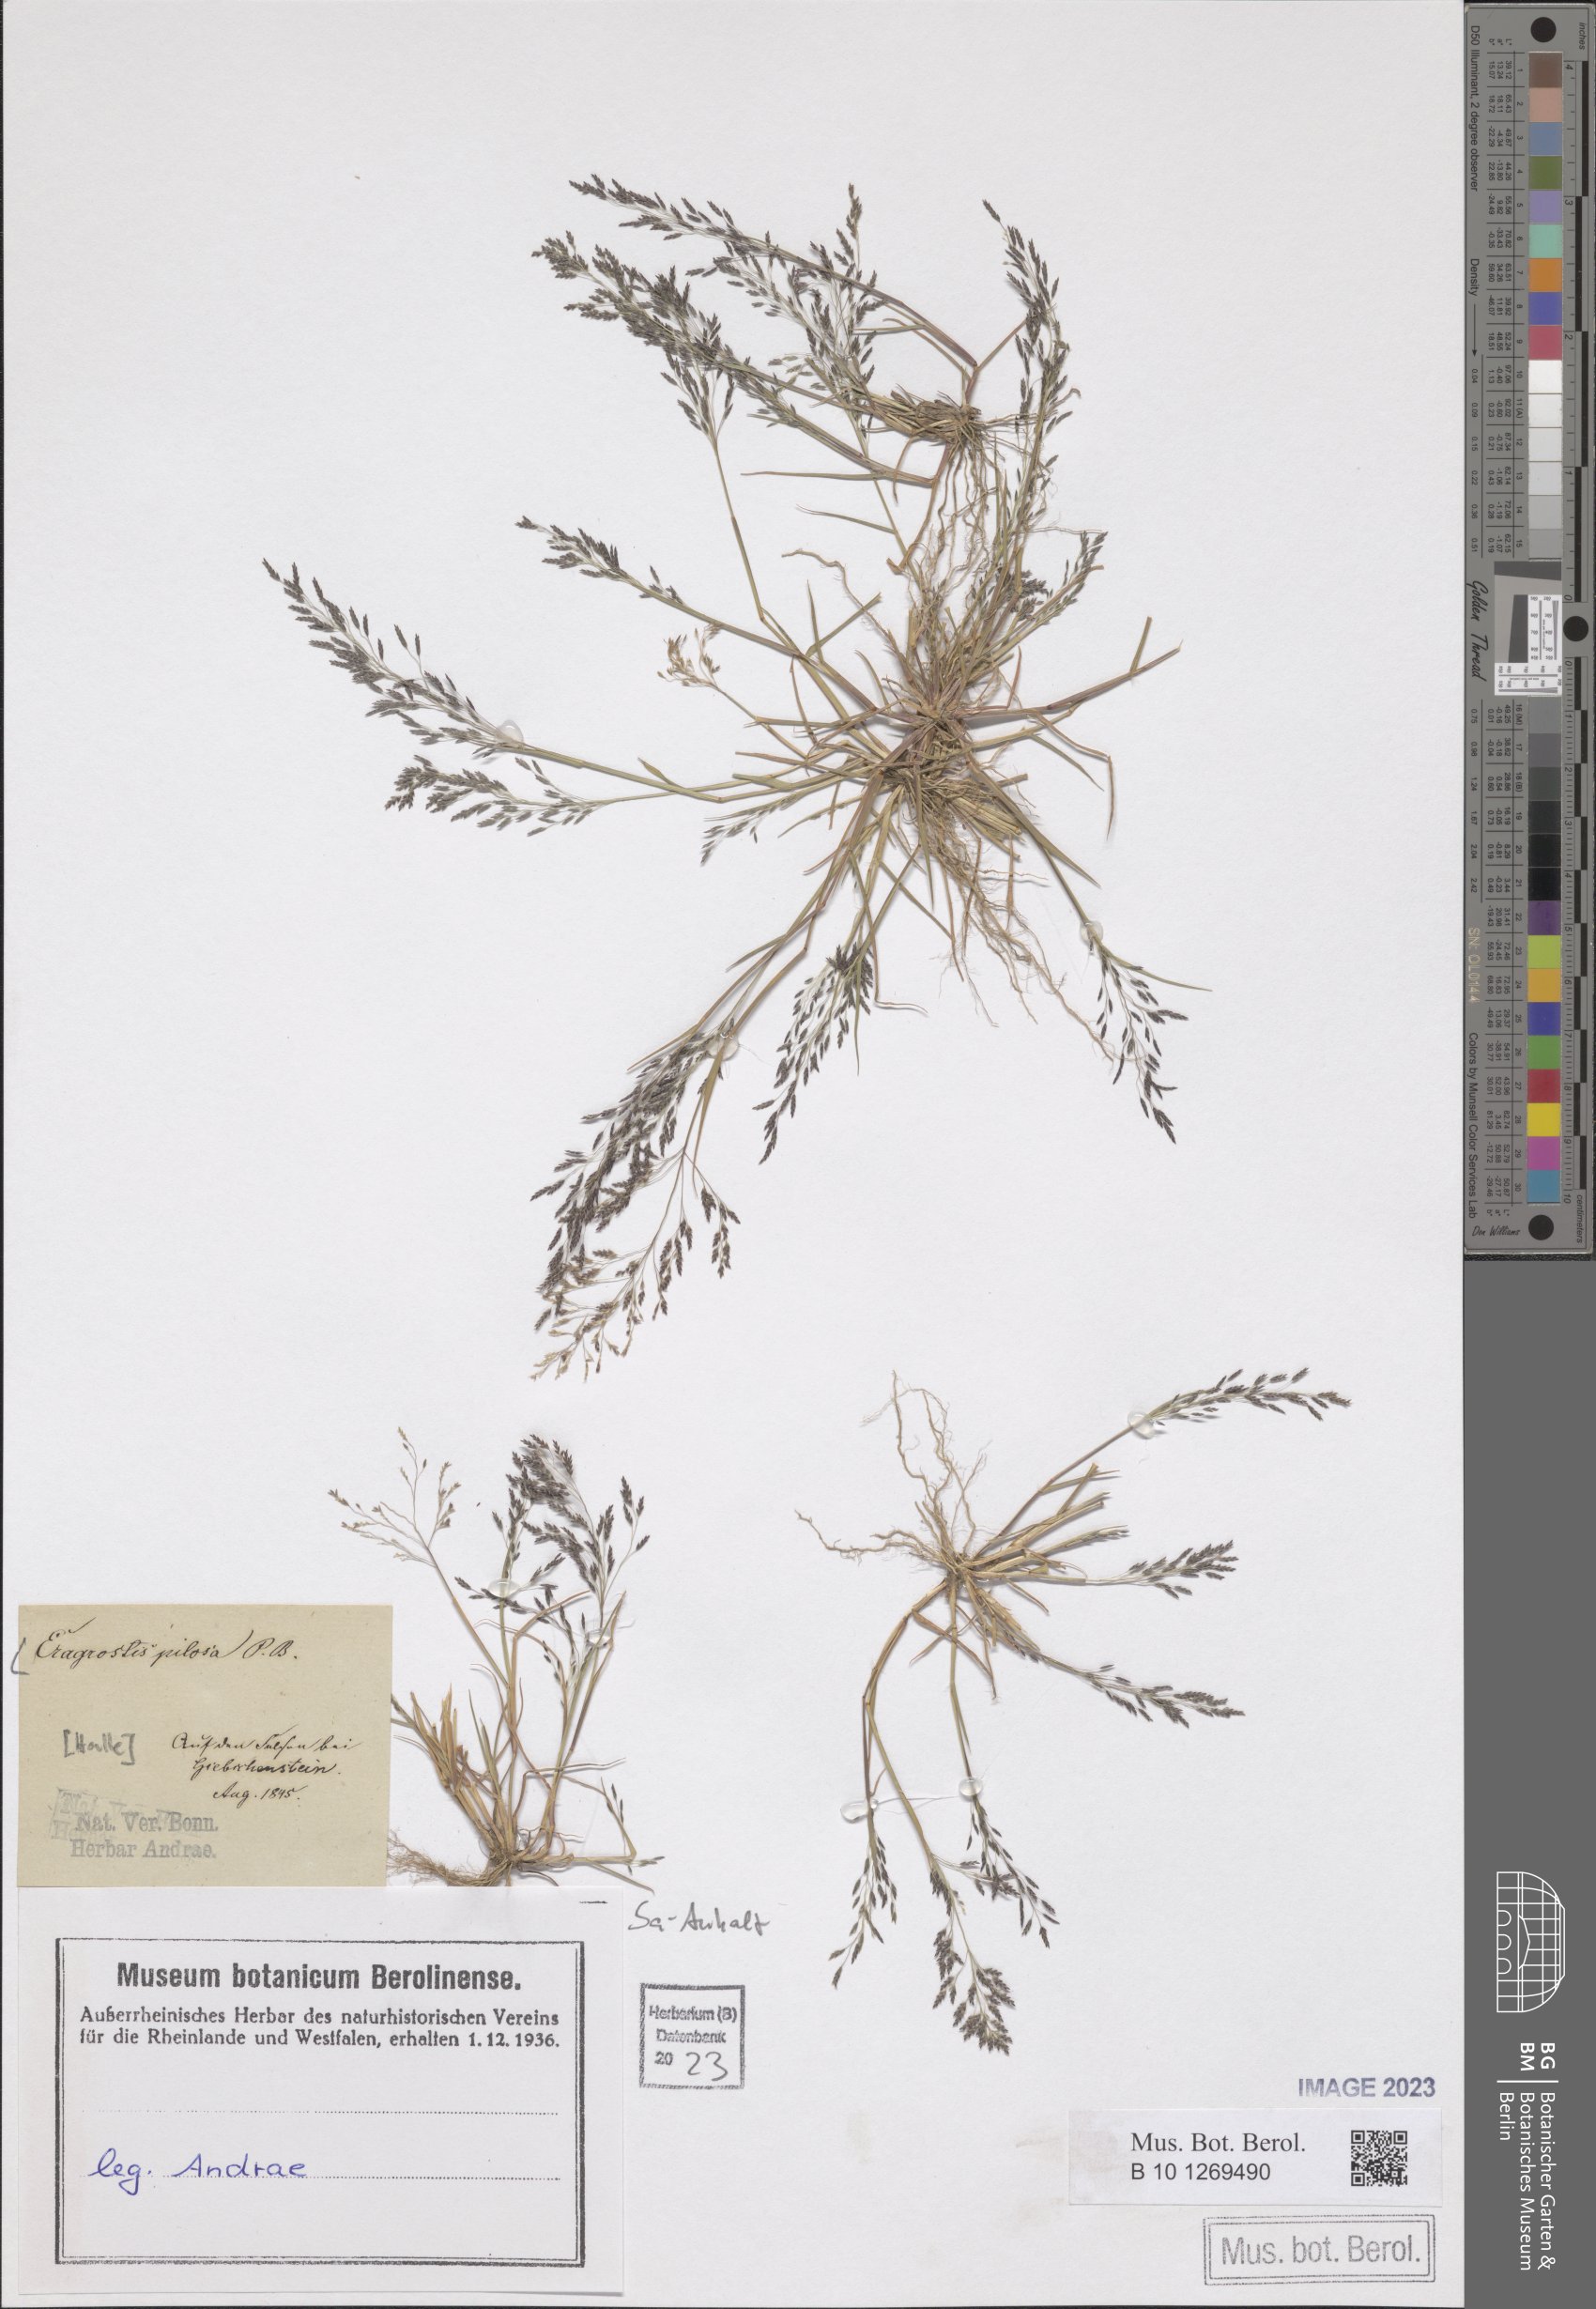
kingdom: Plantae
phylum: Tracheophyta
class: Liliopsida
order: Poales
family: Poaceae
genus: Eragrostis
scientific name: Eragrostis pilosa
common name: Indian lovegrass
